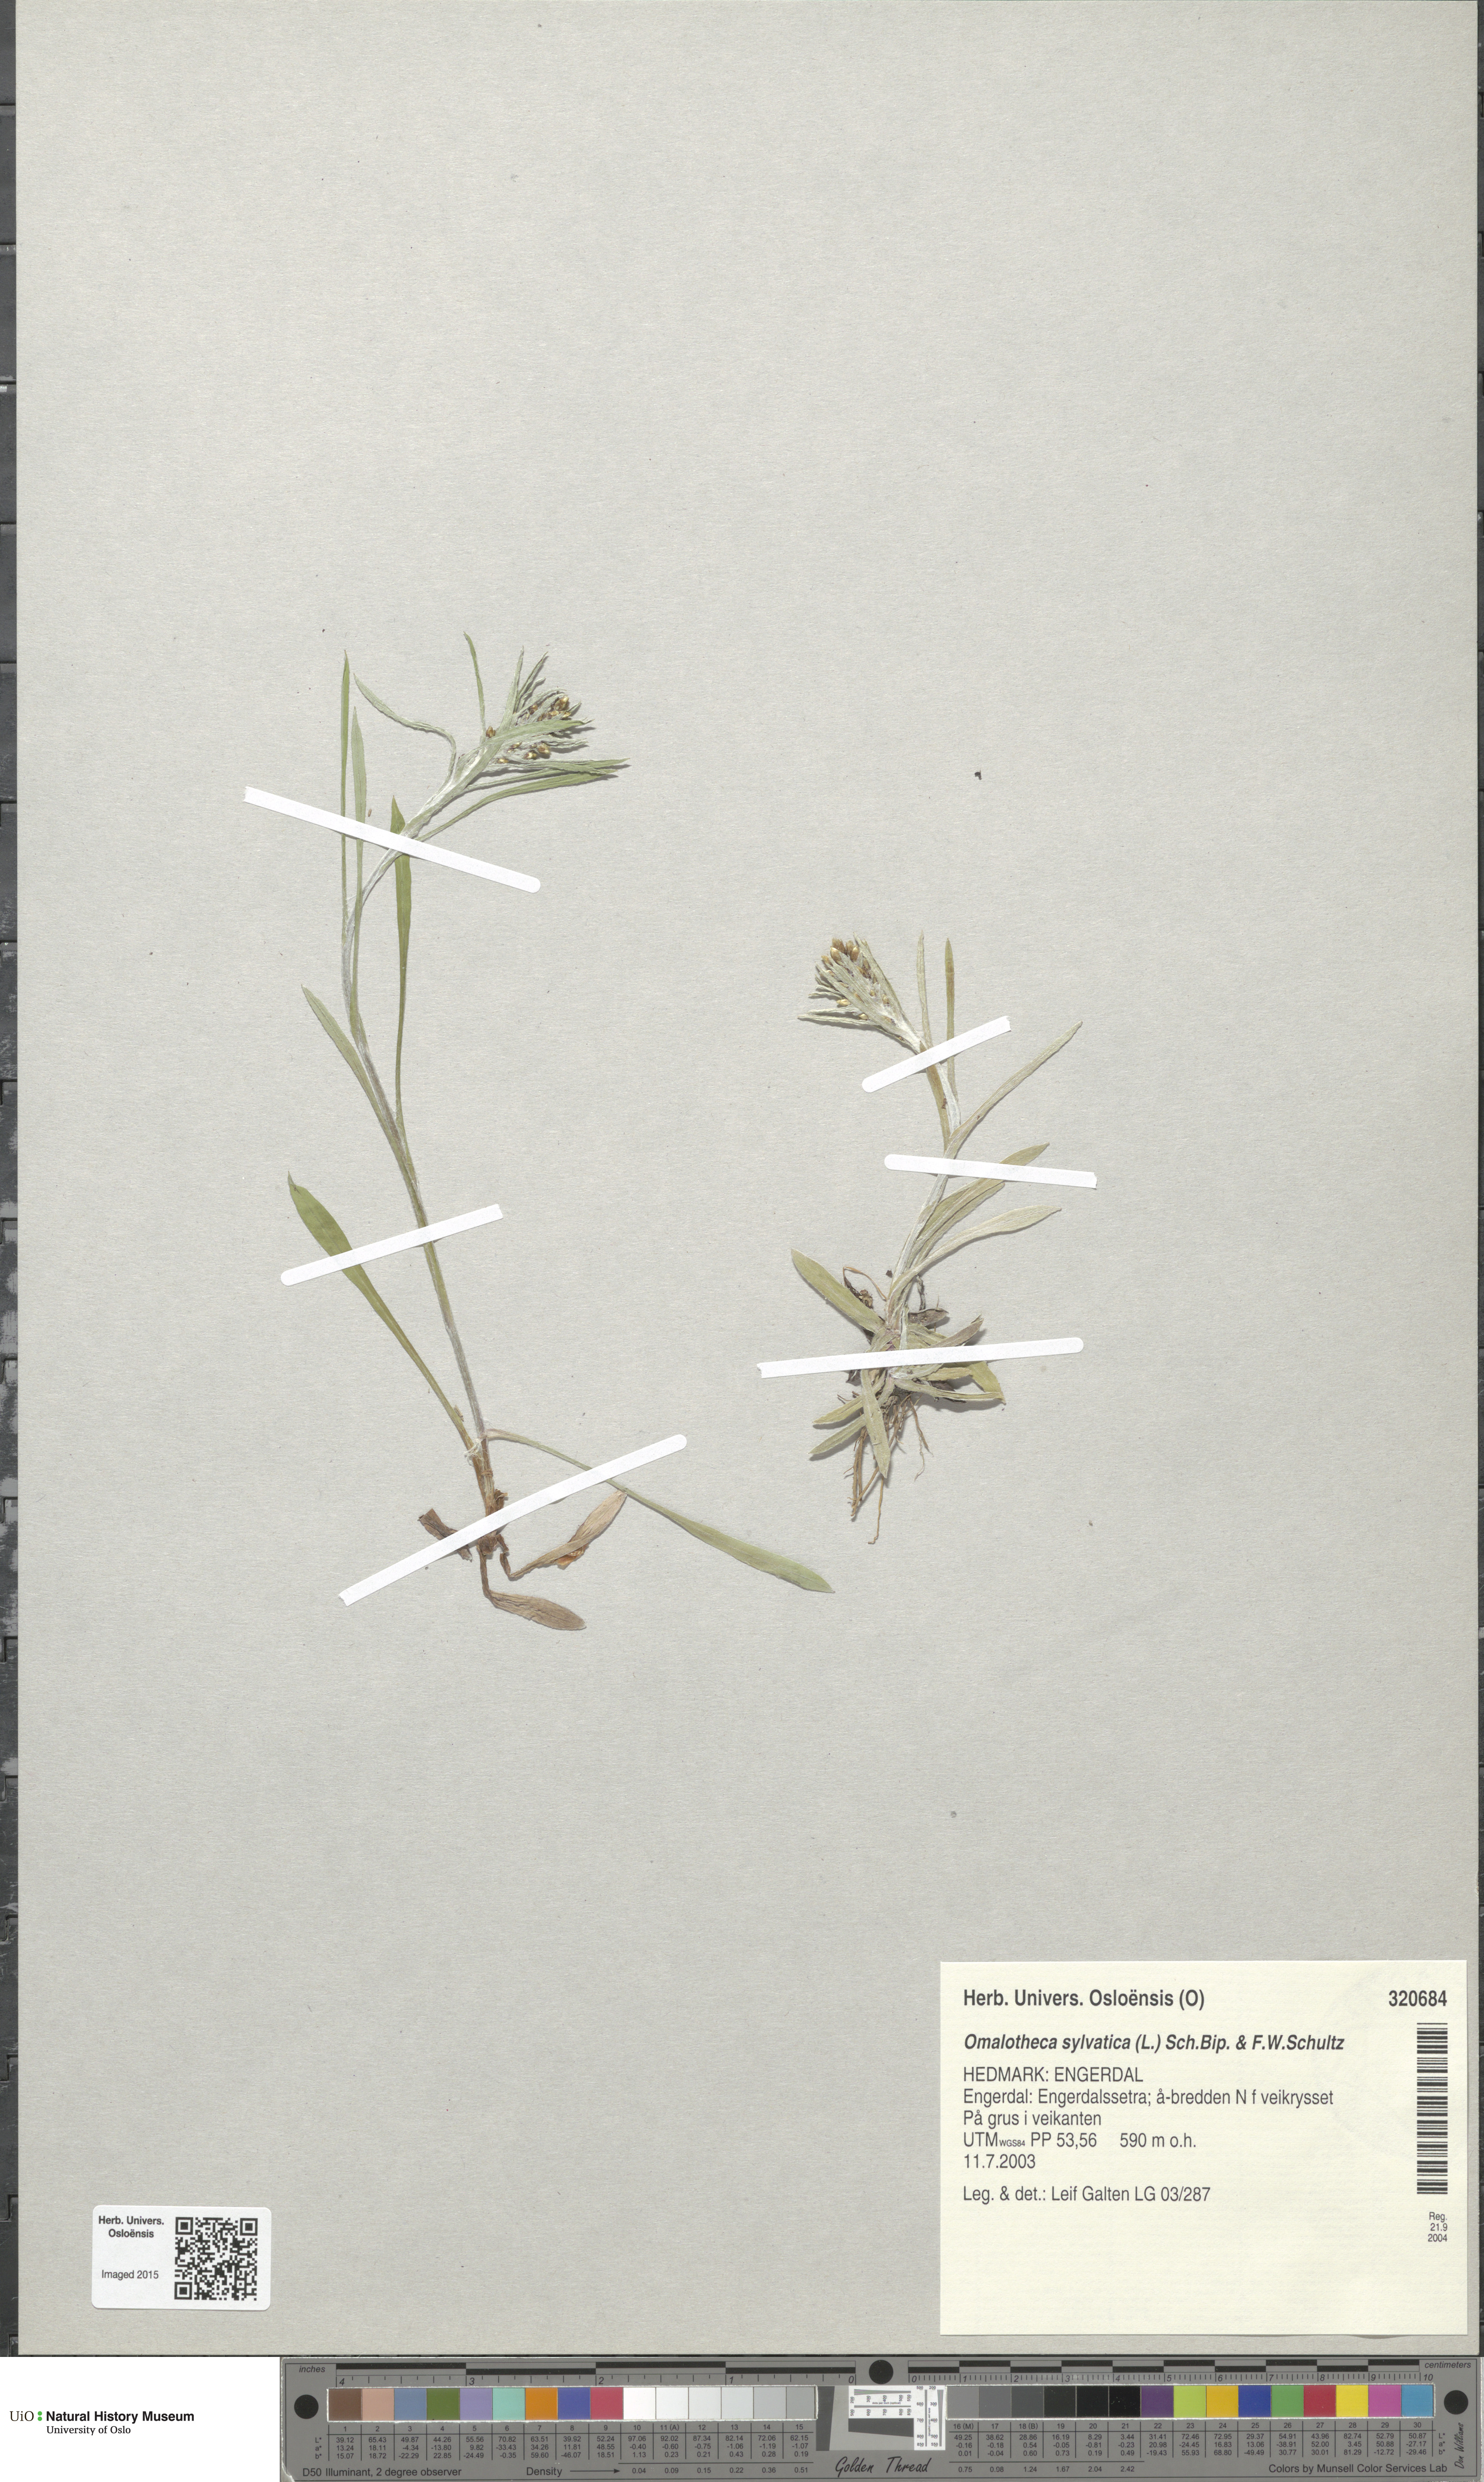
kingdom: Plantae
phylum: Tracheophyta
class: Magnoliopsida
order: Asterales
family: Asteraceae
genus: Omalotheca
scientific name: Omalotheca sylvatica
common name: Heath cudweed
